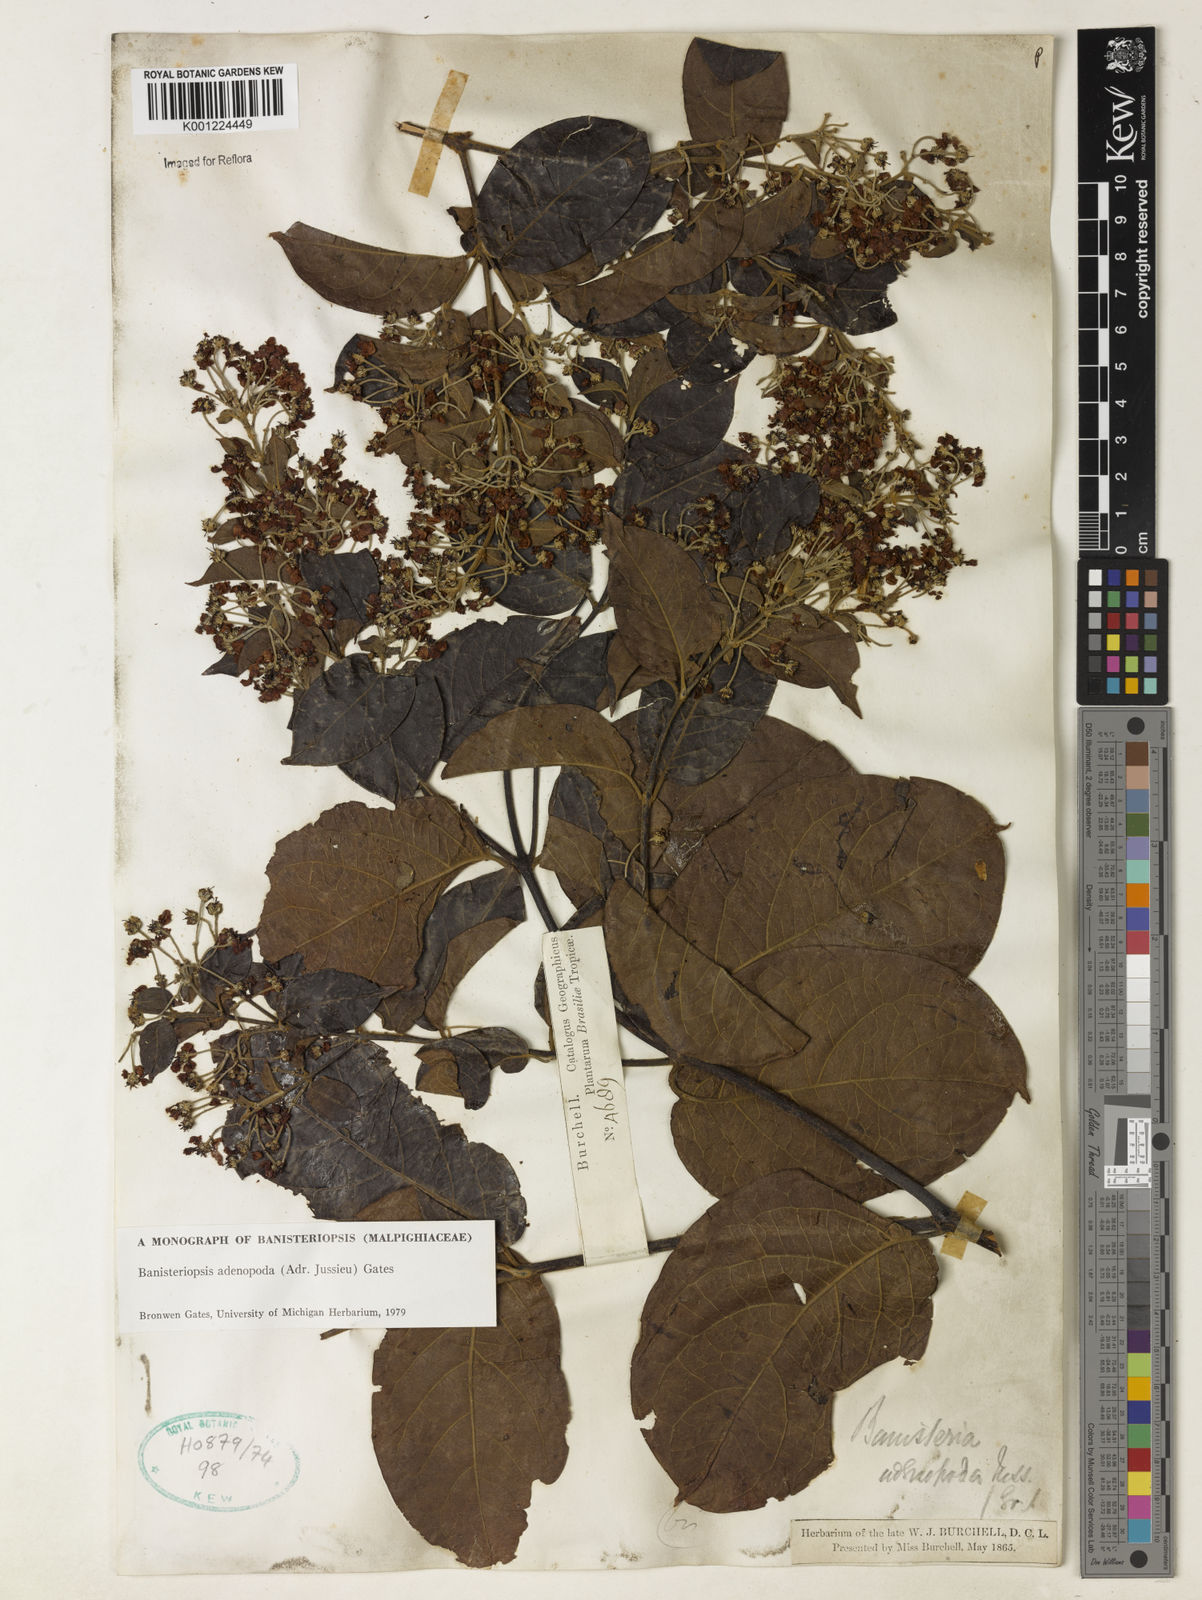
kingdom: Plantae
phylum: Tracheophyta
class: Magnoliopsida
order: Malpighiales
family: Malpighiaceae
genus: Banisteriopsis
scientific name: Banisteriopsis adenopoda
